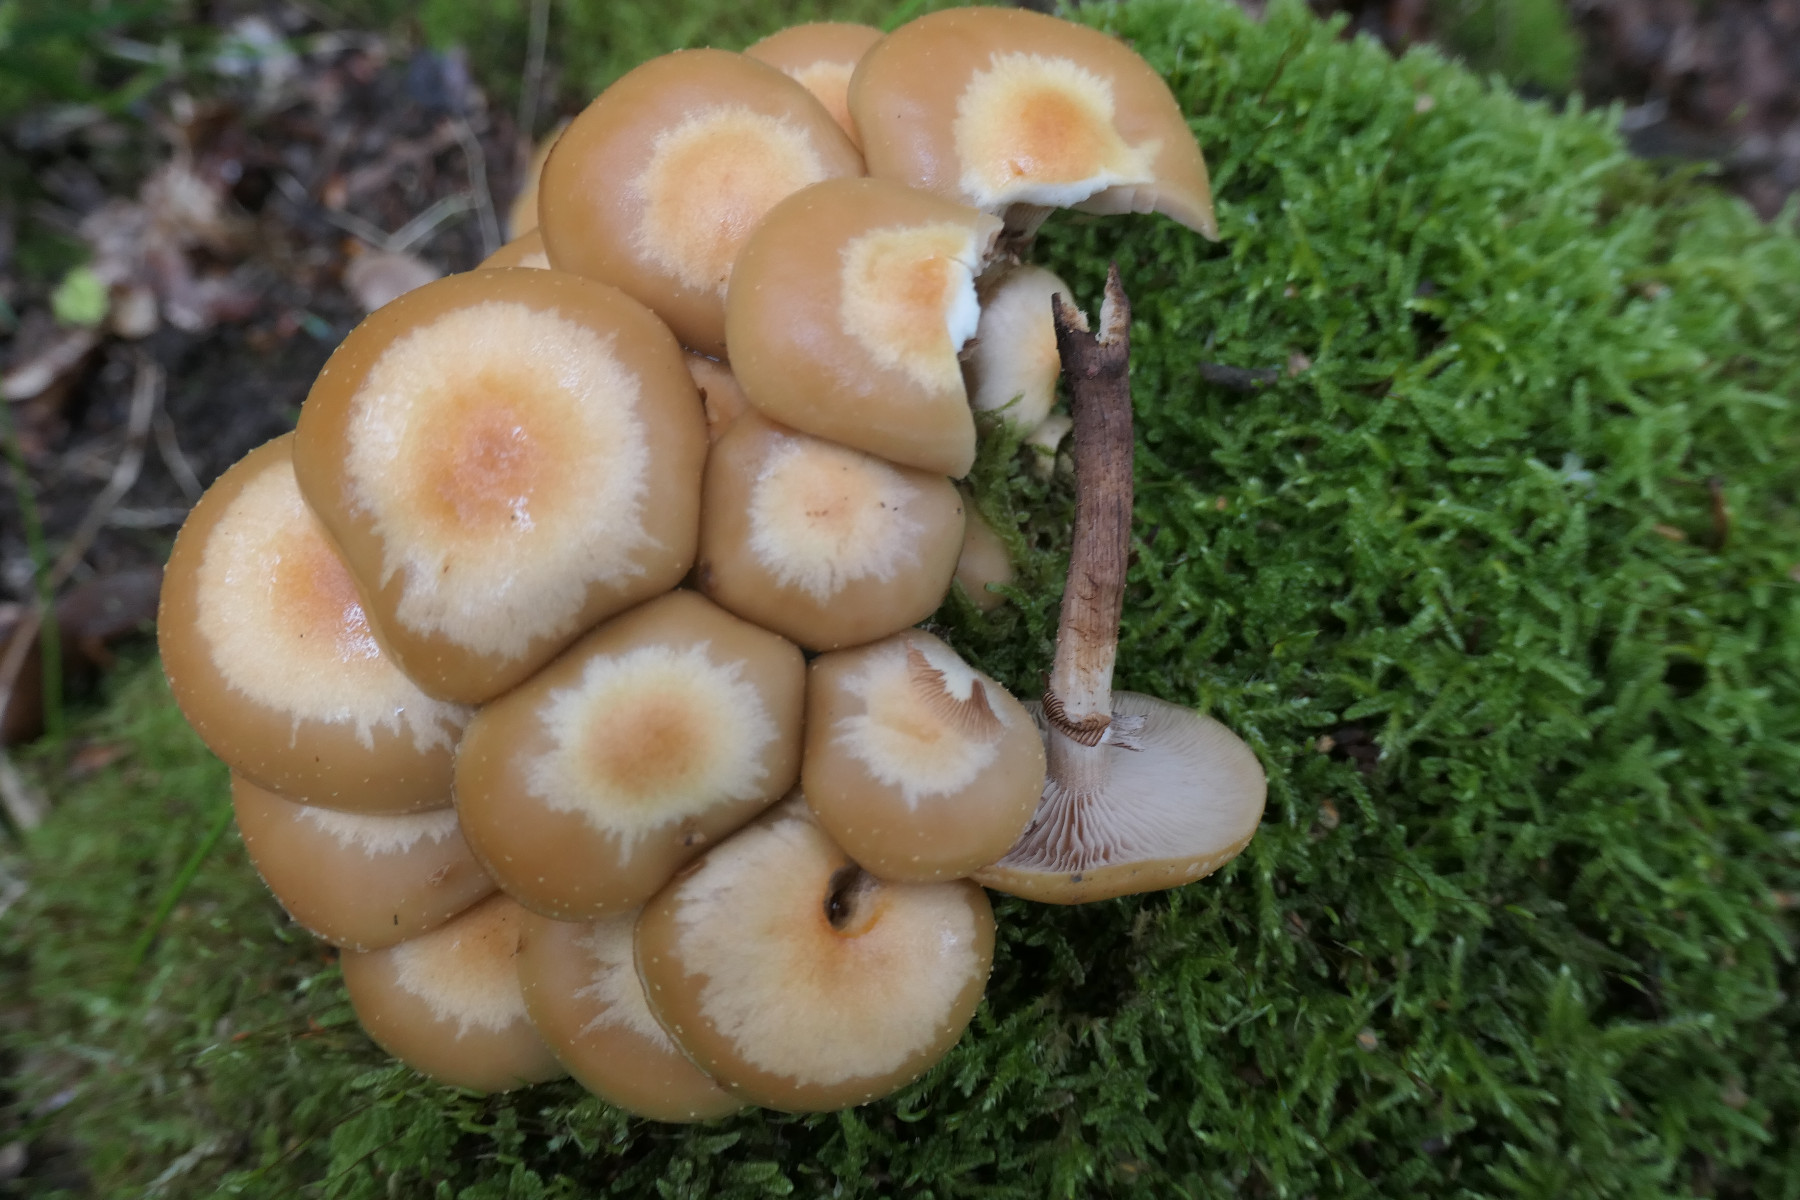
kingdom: Fungi
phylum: Basidiomycota
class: Agaricomycetes
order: Agaricales
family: Strophariaceae
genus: Kuehneromyces
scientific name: Kuehneromyces mutabilis
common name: foranderlig skælhat
